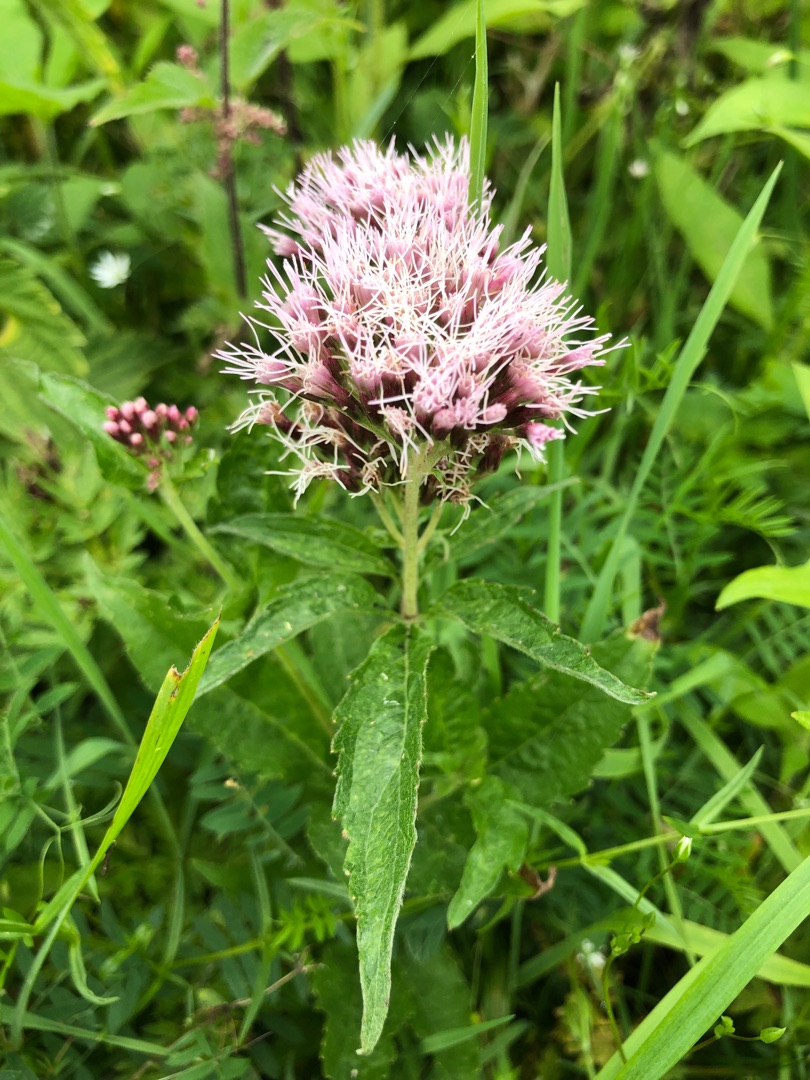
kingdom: Plantae
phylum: Tracheophyta
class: Magnoliopsida
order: Asterales
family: Asteraceae
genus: Eupatorium
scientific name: Eupatorium cannabinum
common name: Hjortetrøst
